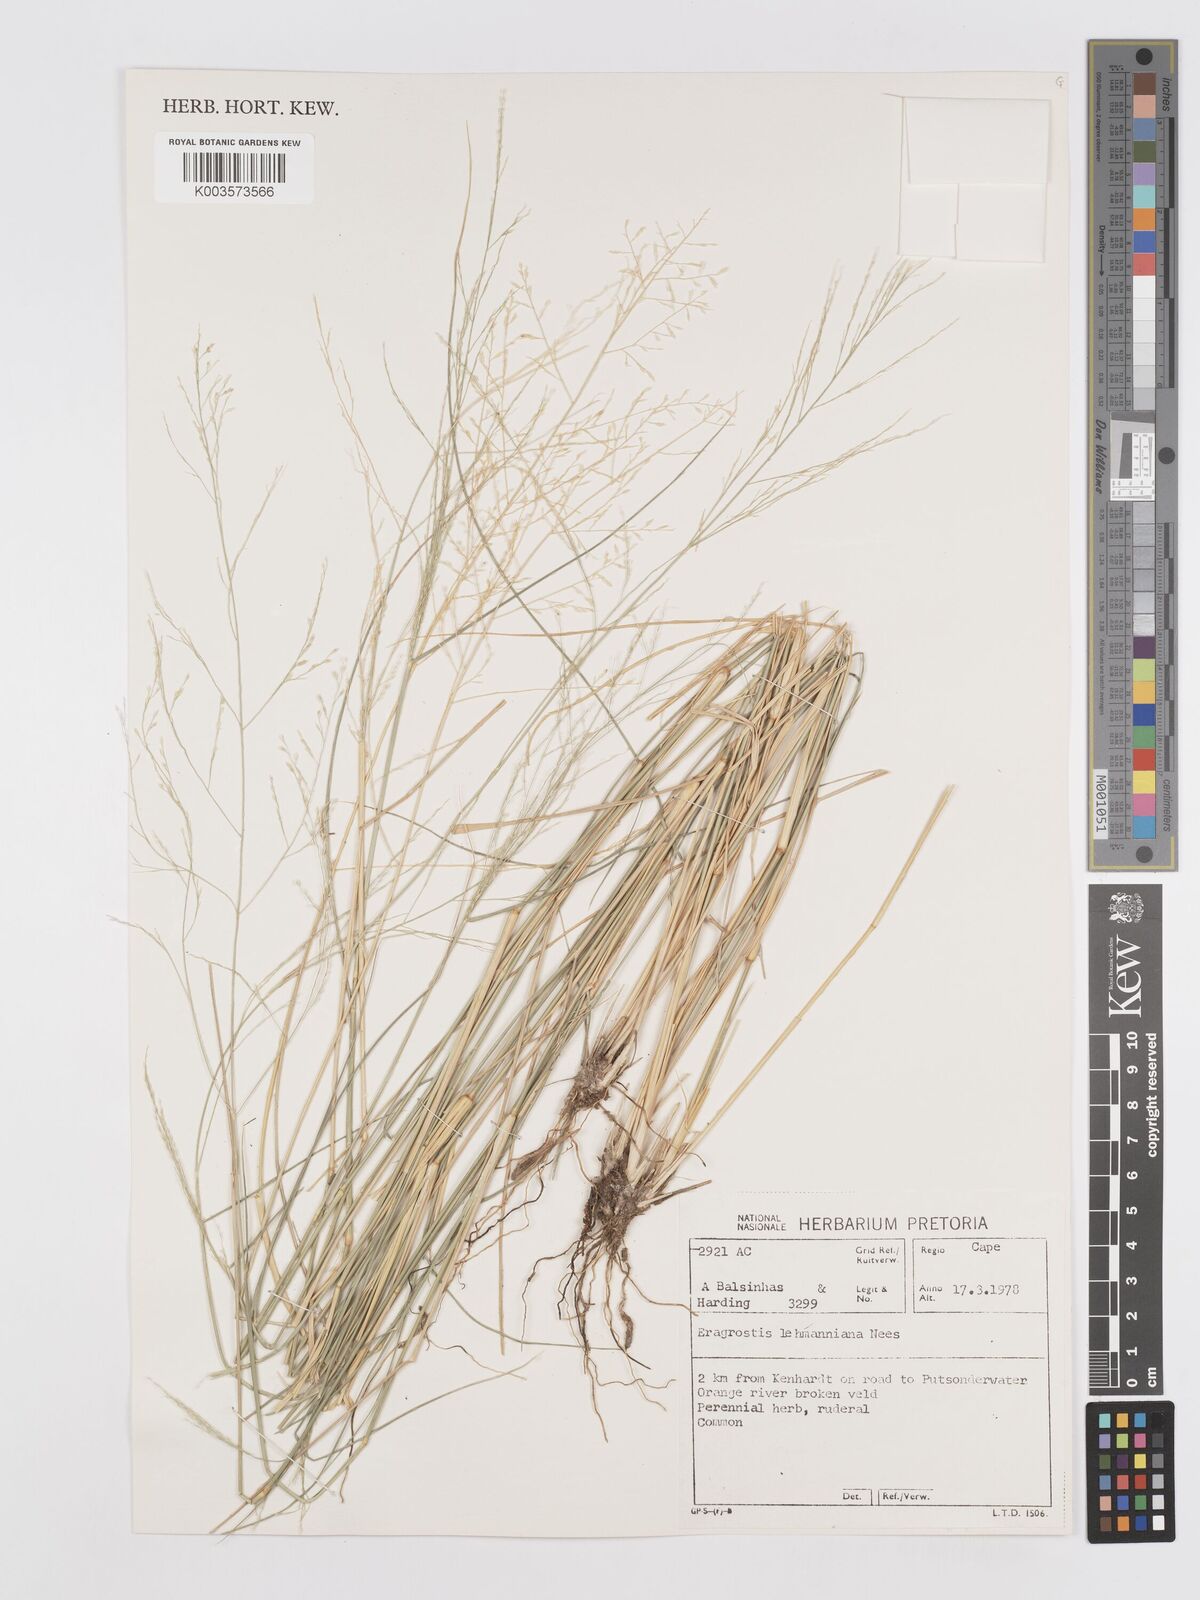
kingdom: Plantae
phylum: Tracheophyta
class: Liliopsida
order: Poales
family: Poaceae
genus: Eragrostis
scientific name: Eragrostis lehmanniana
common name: Lehmann lovegrass
